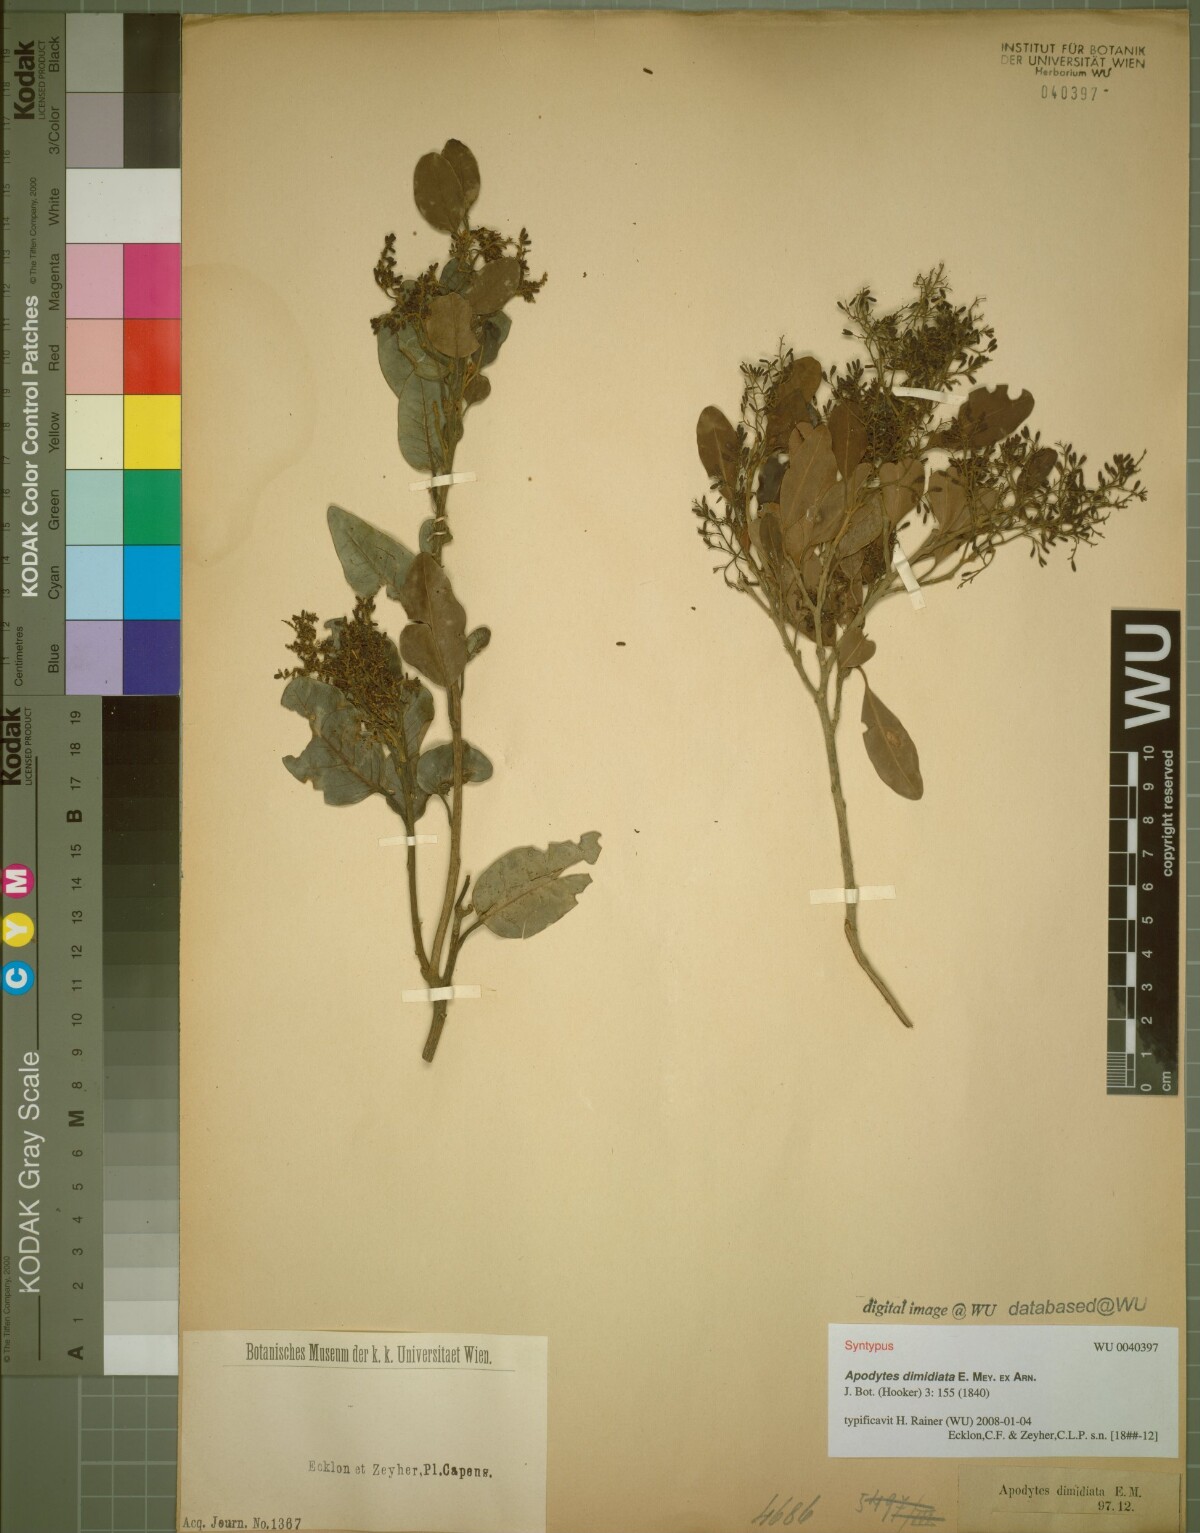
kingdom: Plantae
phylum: Tracheophyta
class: Magnoliopsida
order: Metteniusales
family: Metteniusaceae
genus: Apodytes
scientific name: Apodytes dimidiata
